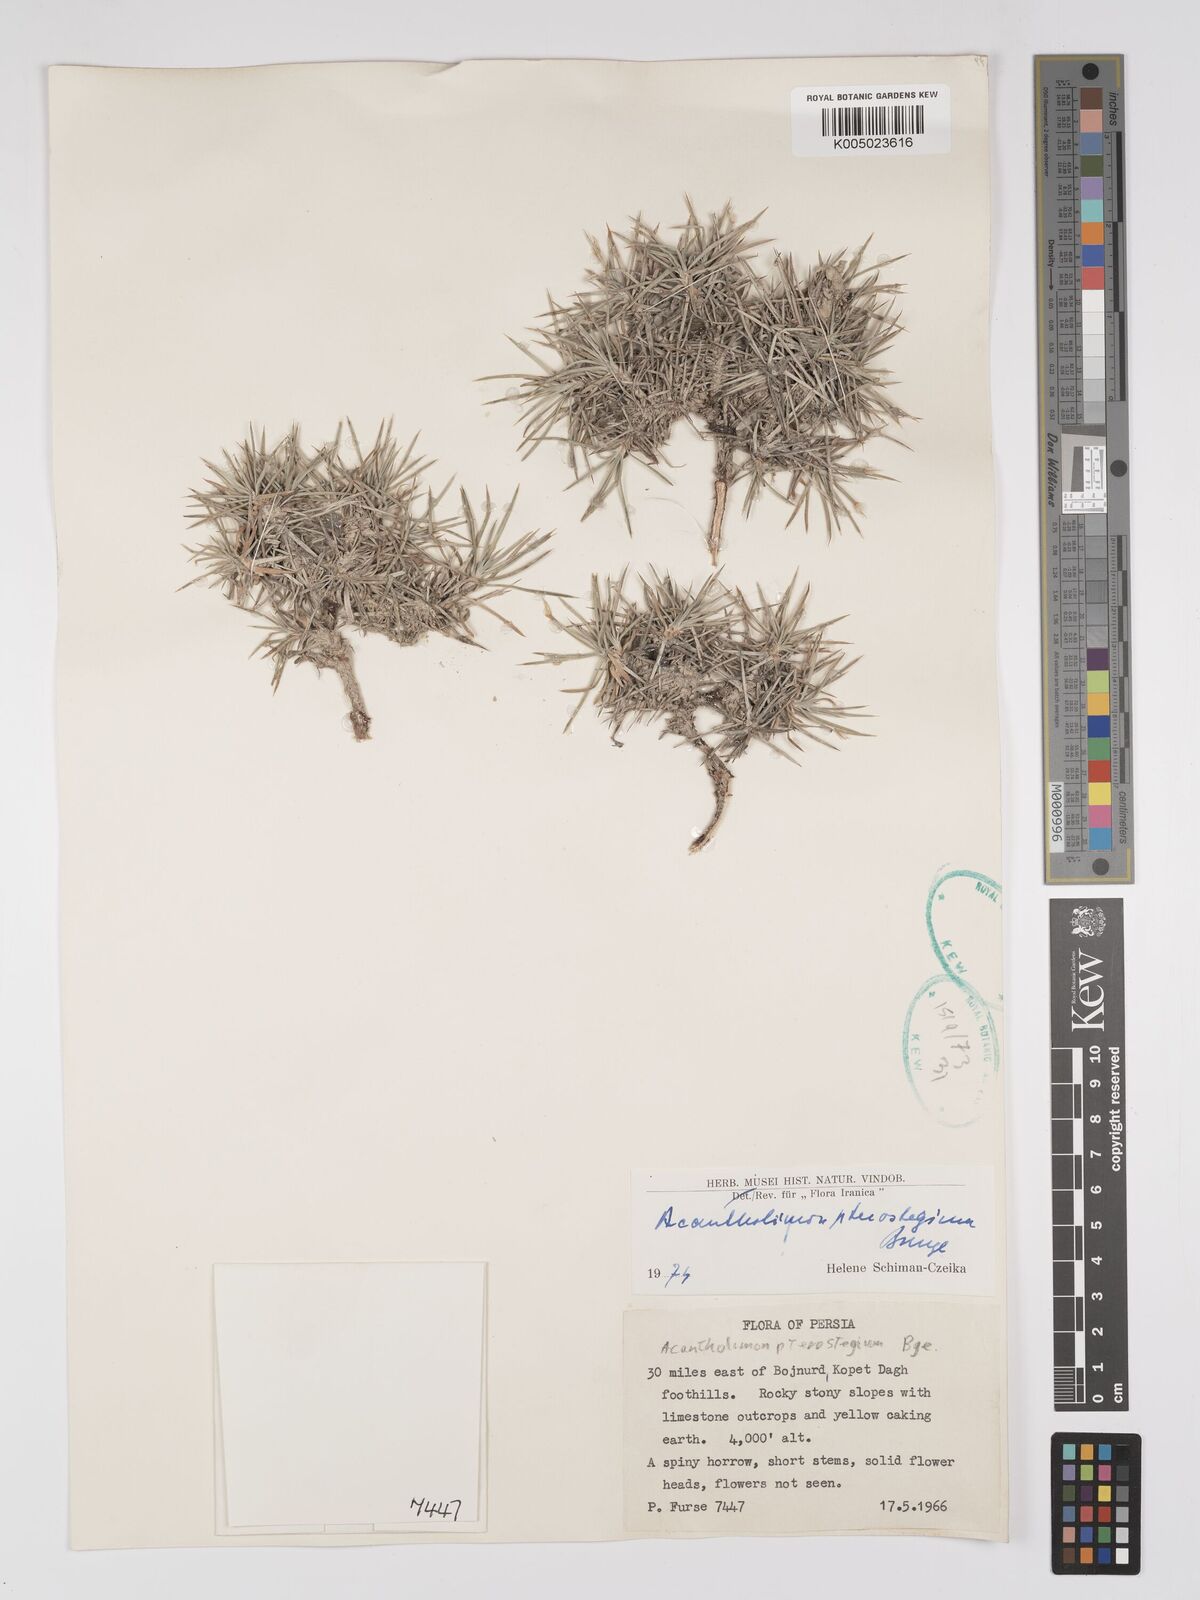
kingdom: Plantae
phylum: Tracheophyta
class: Magnoliopsida
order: Caryophyllales
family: Plumbaginaceae
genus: Acantholimon
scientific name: Acantholimon pterostegium
